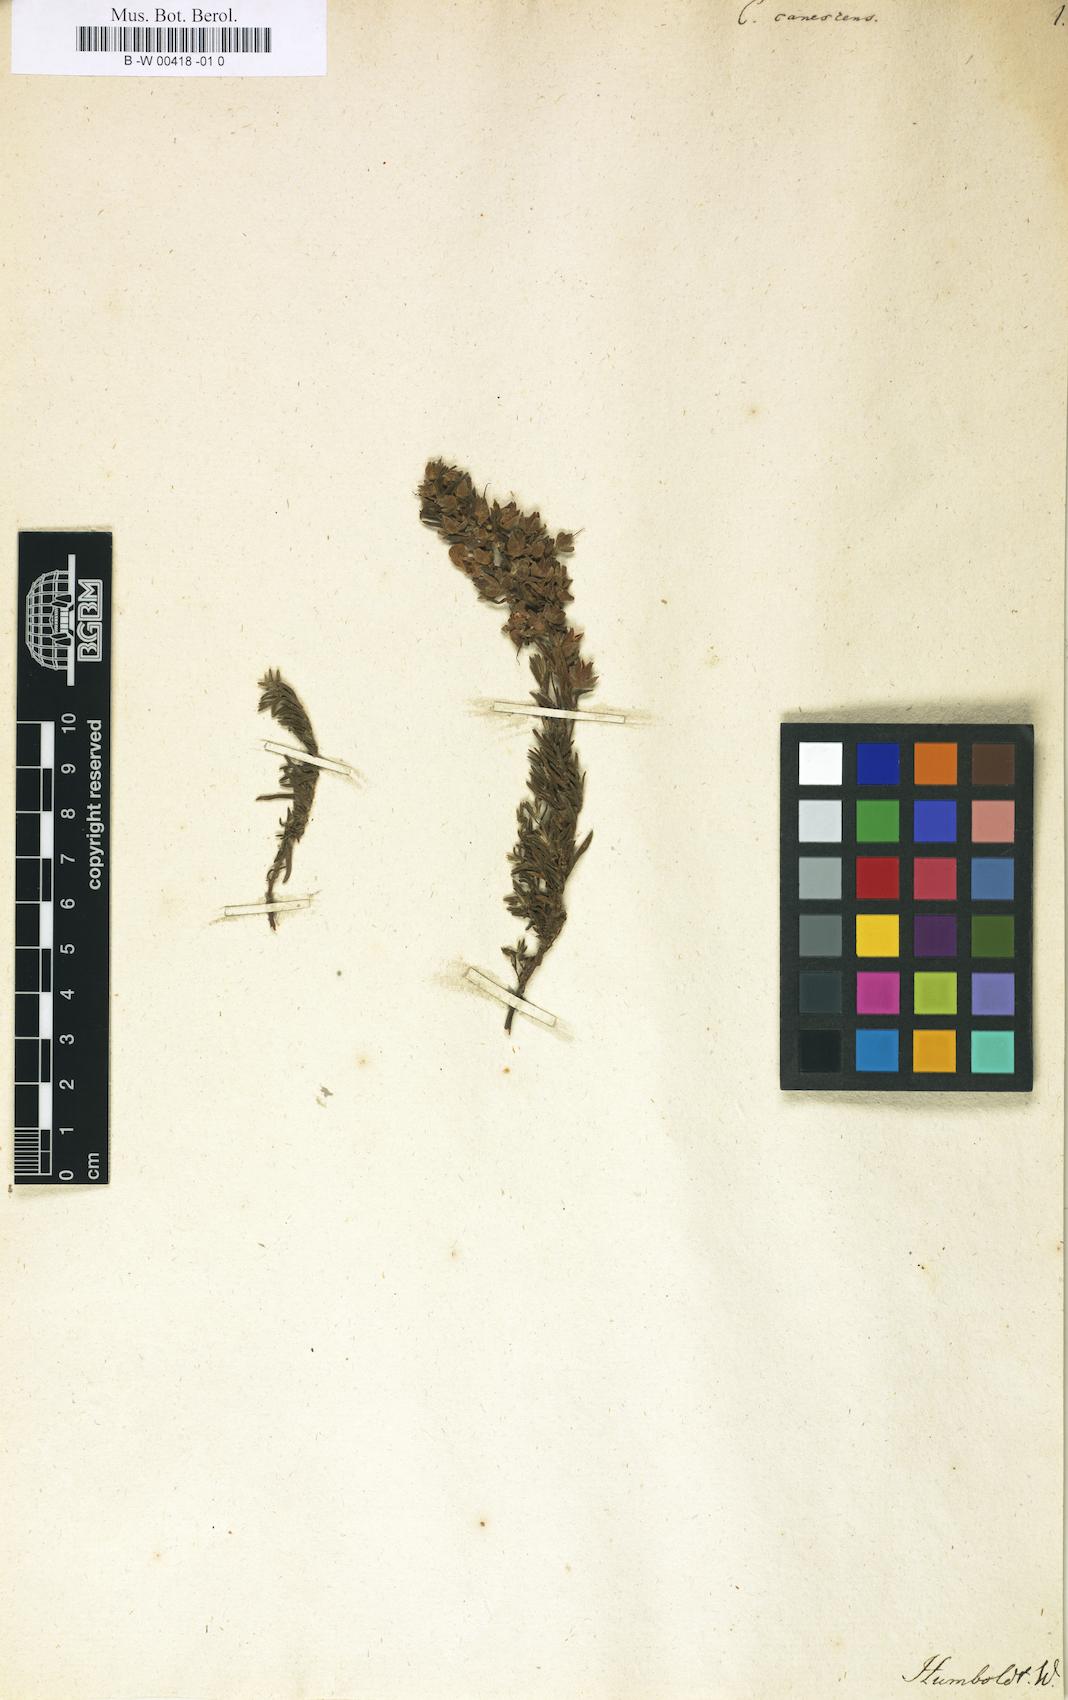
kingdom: Plantae
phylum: Tracheophyta
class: Magnoliopsida
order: Lamiales
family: Calceolariaceae
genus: Calceolaria
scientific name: Calceolaria hyssopifolia
